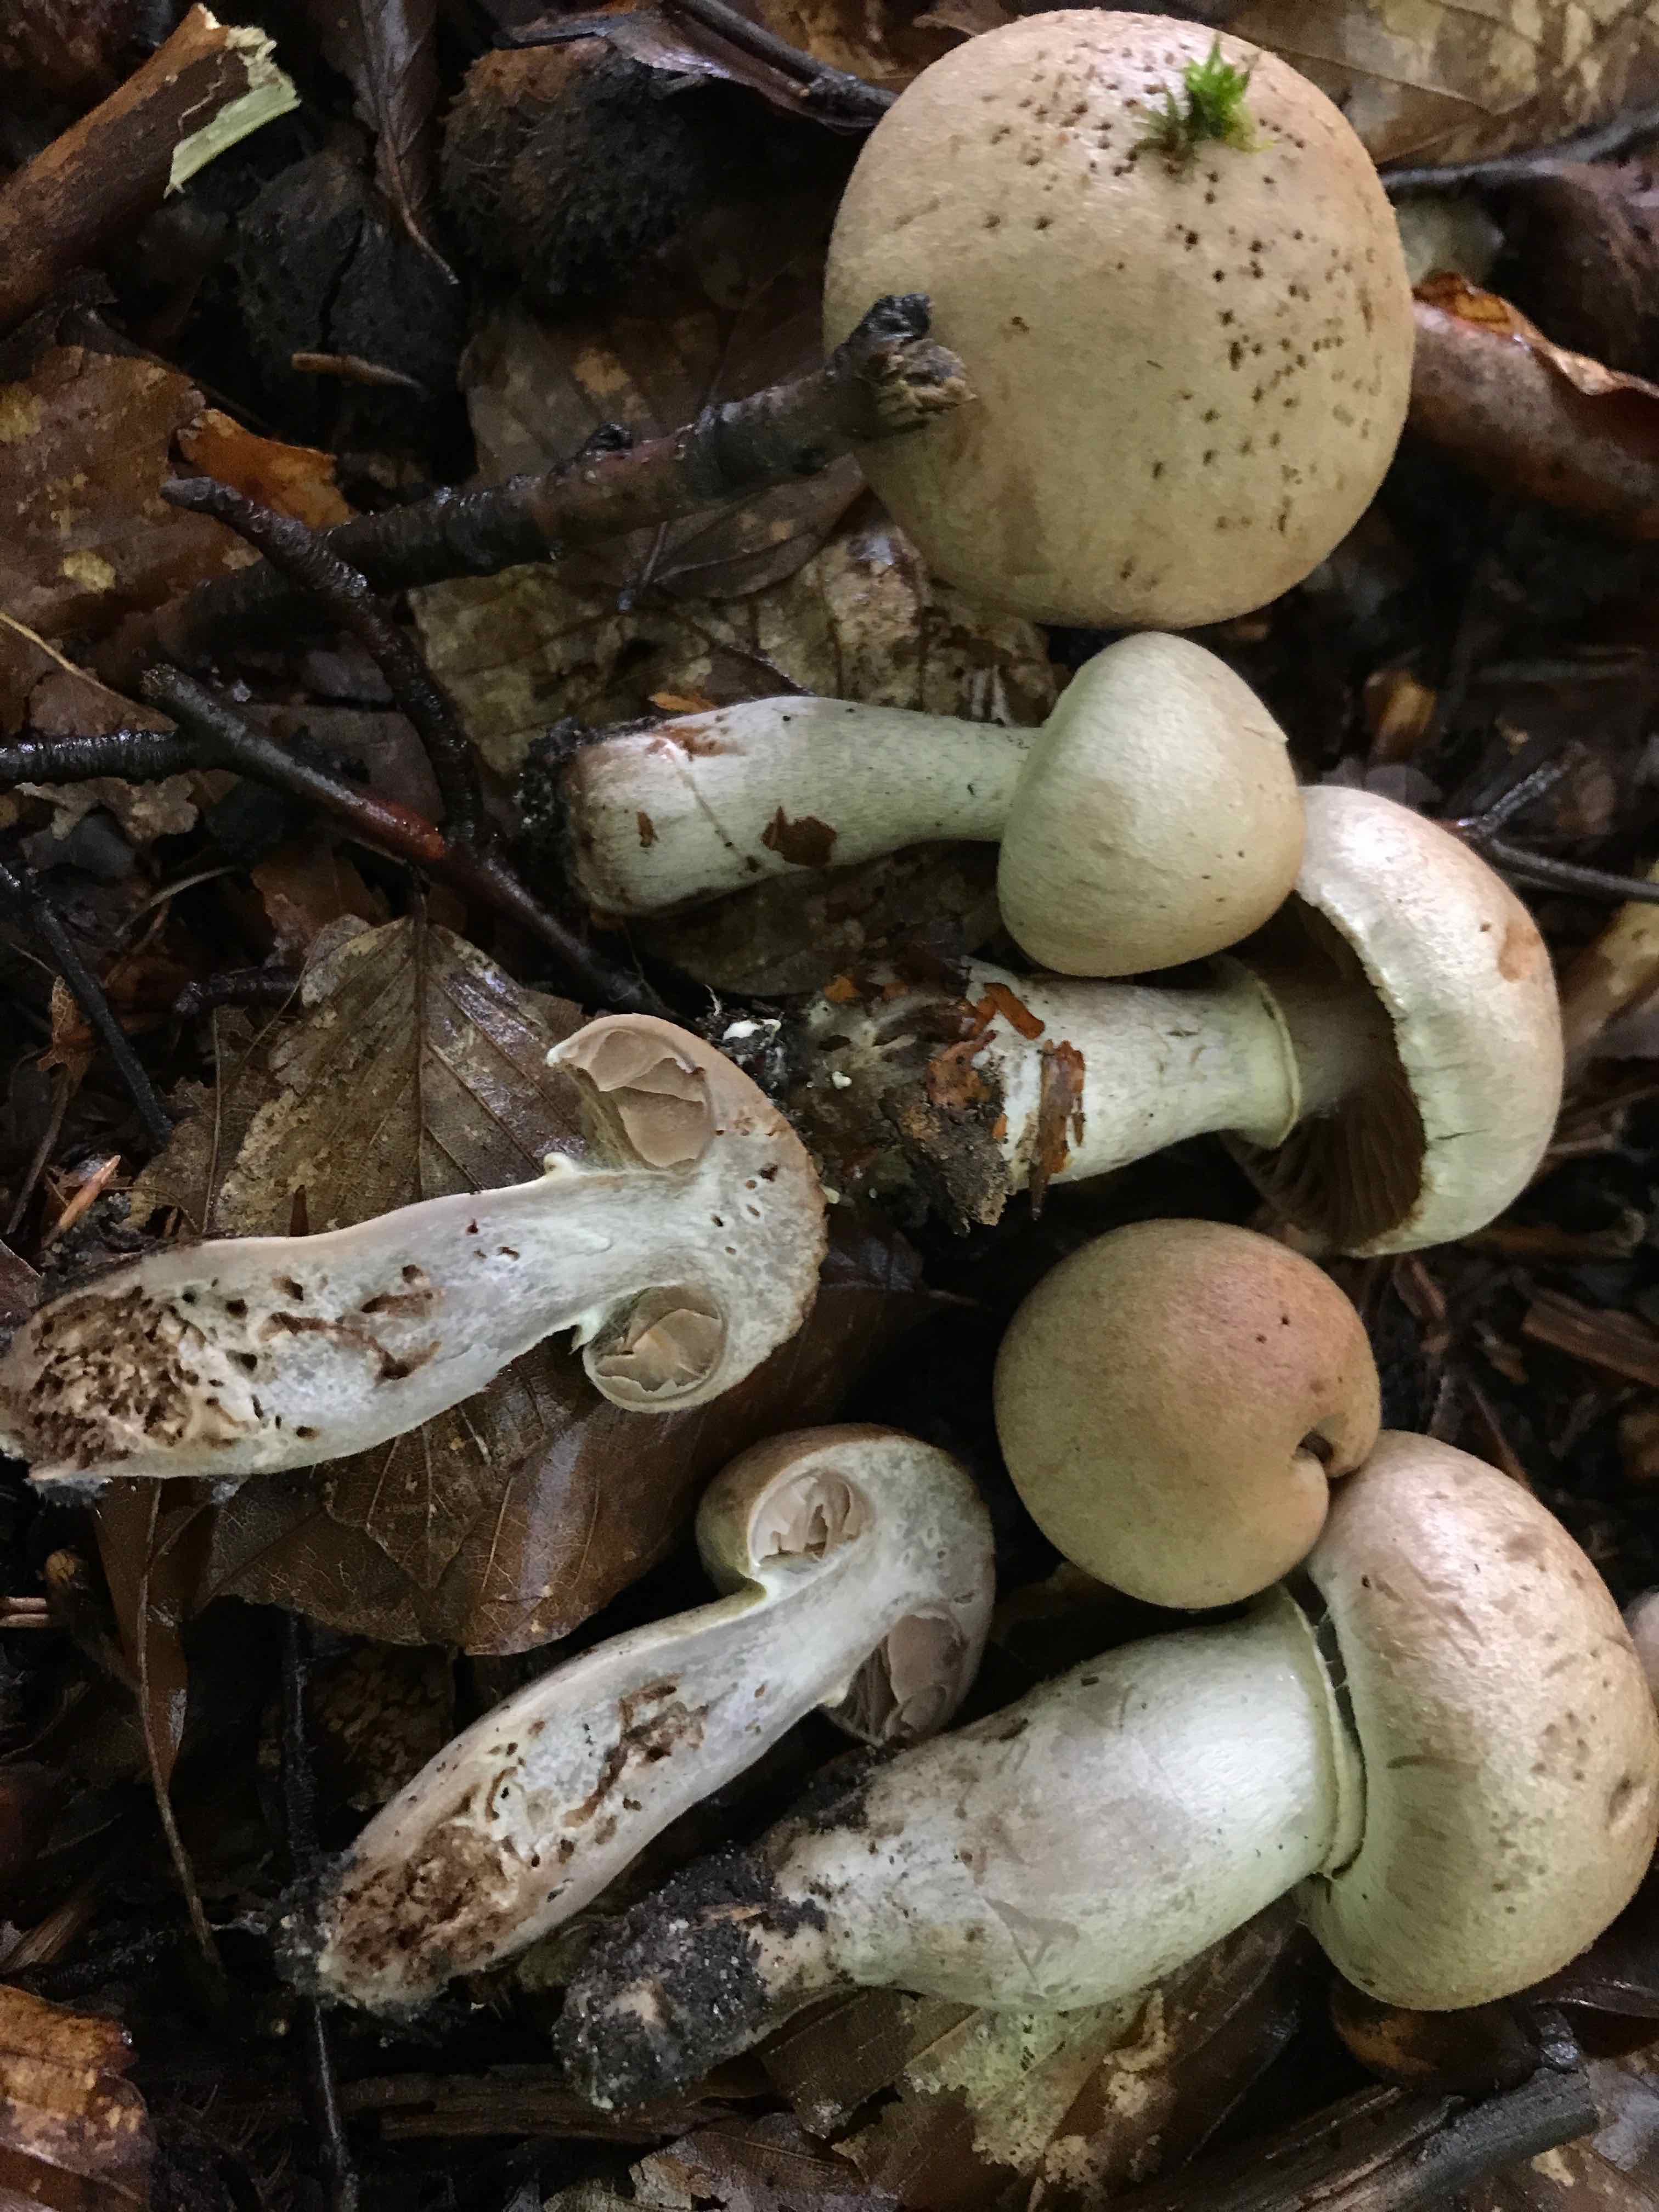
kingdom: Fungi
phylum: Basidiomycota
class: Agaricomycetes
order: Agaricales
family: Cortinariaceae
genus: Cortinarius
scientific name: Cortinarius torvus
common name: champignonagtig slørhat
